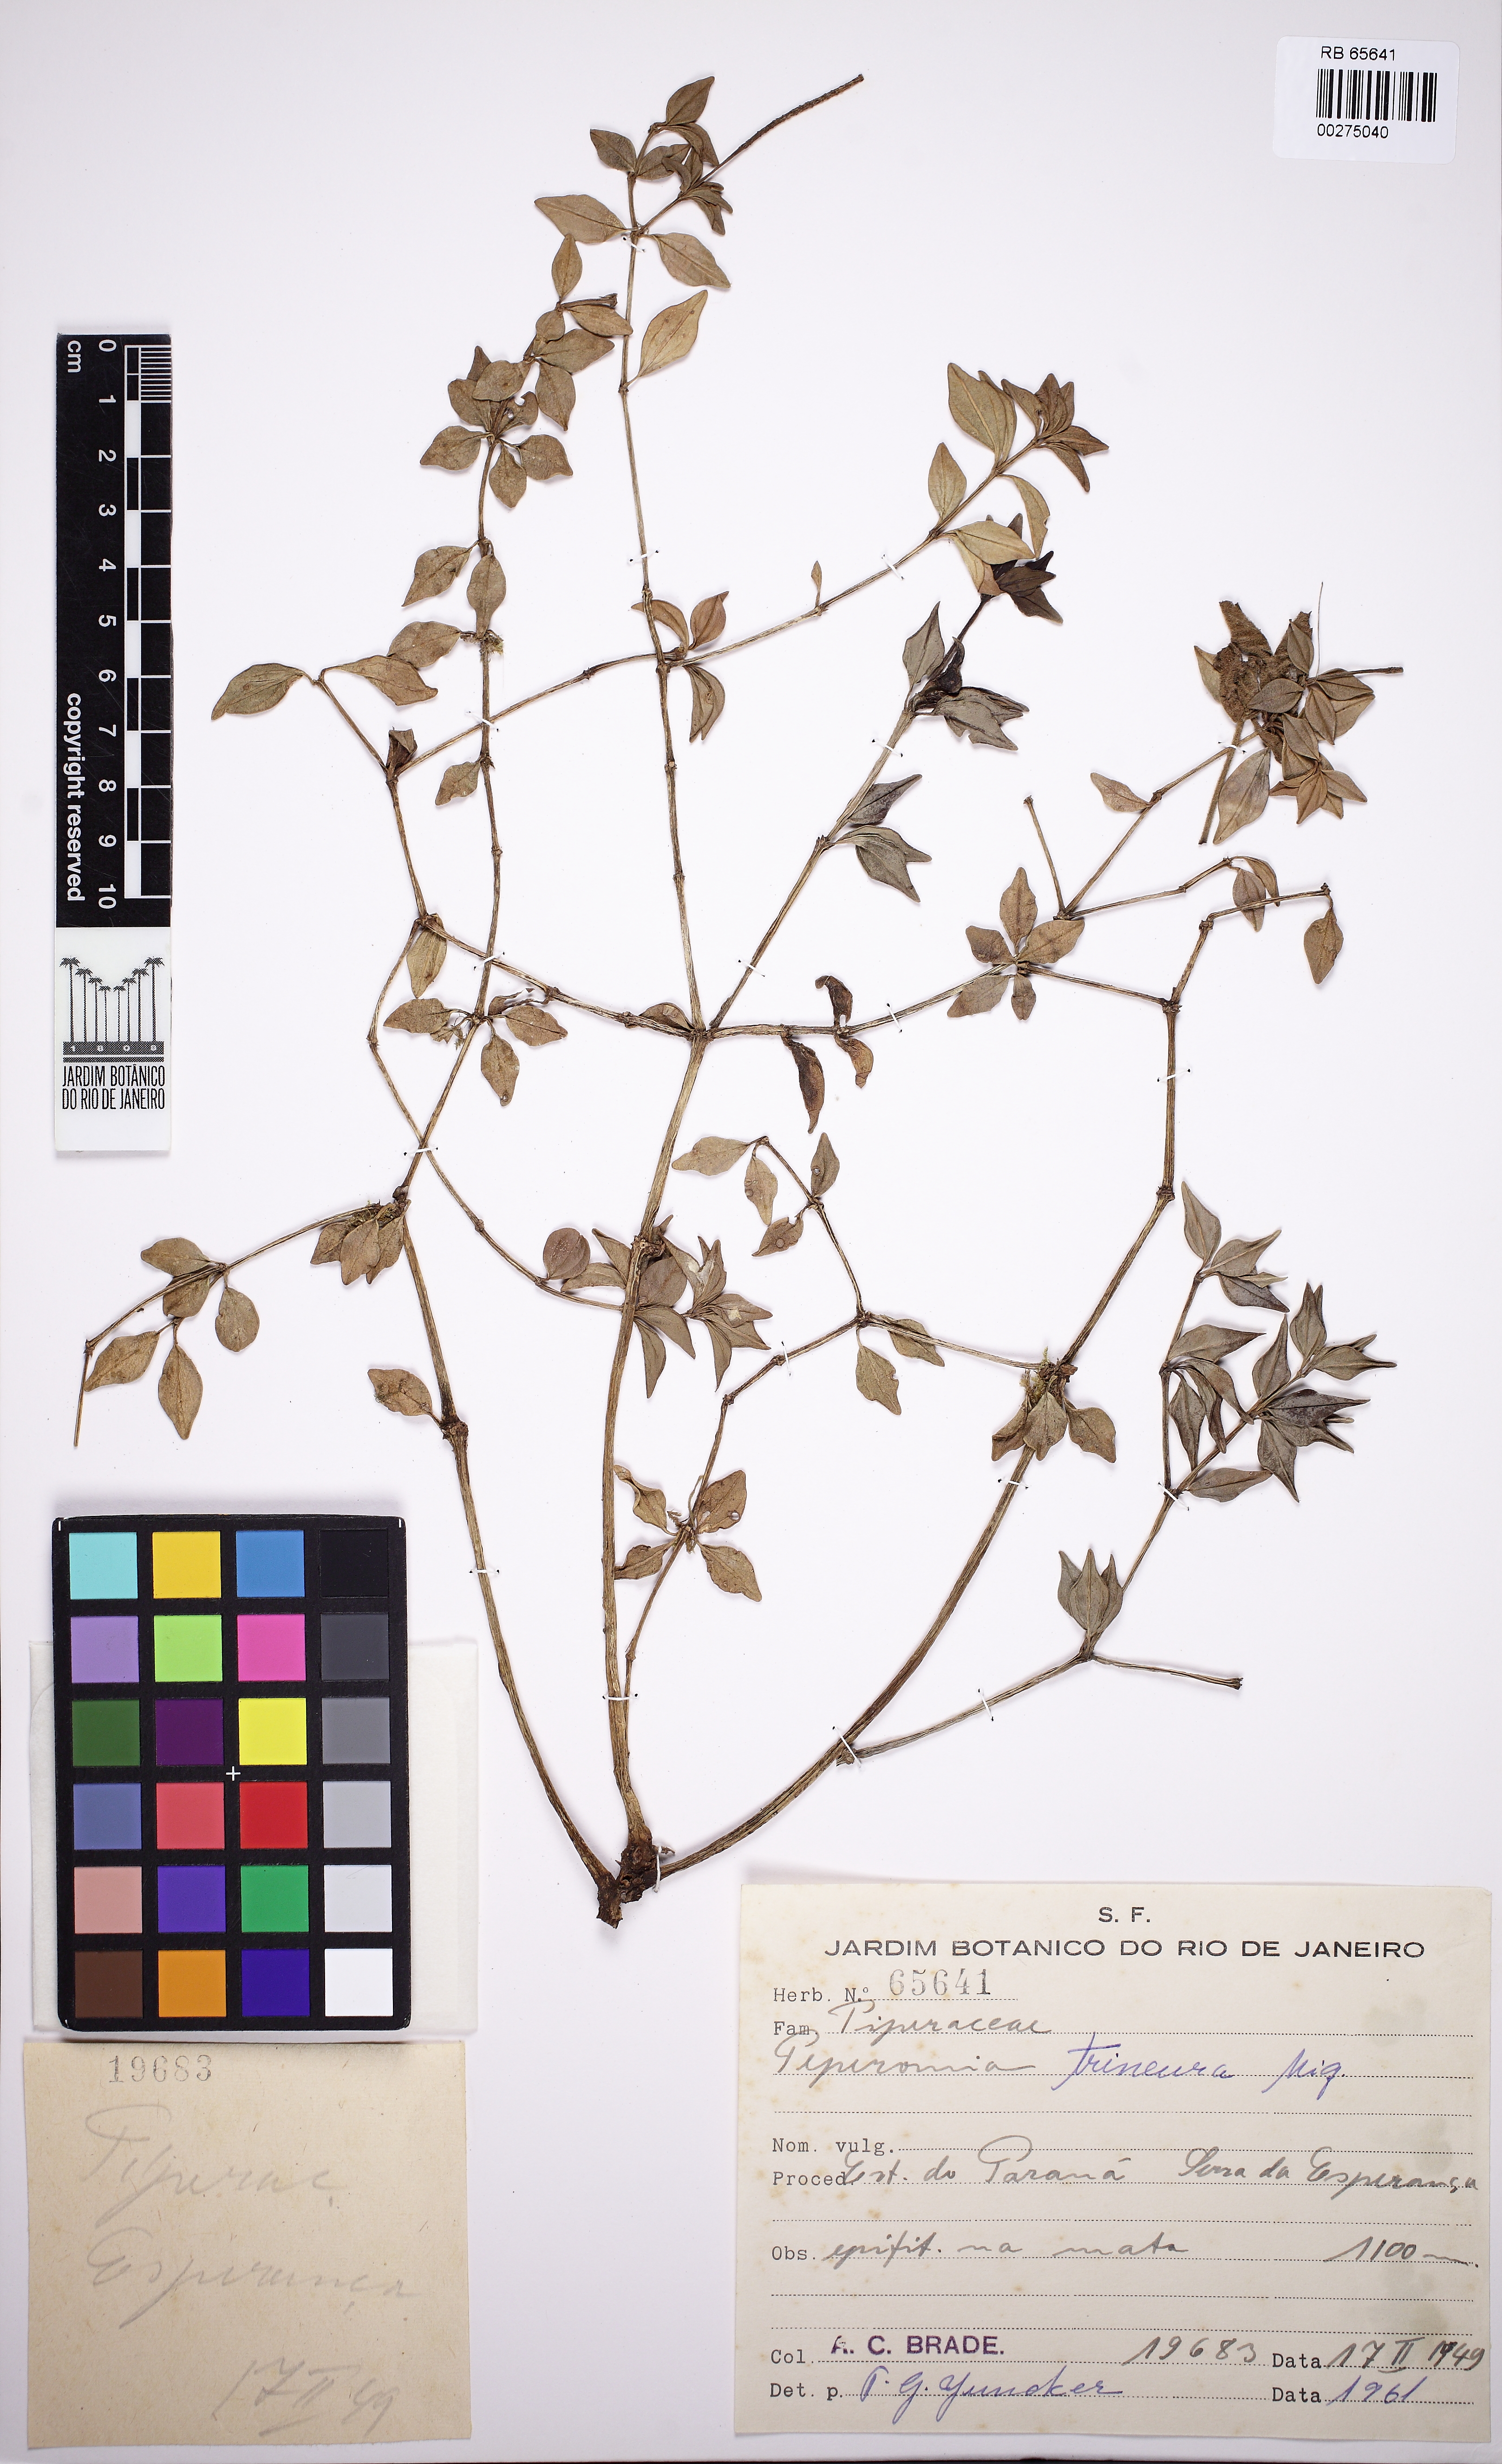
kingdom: Plantae
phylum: Tracheophyta
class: Magnoliopsida
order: Piperales
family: Piperaceae
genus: Peperomia
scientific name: Peperomia trineura
